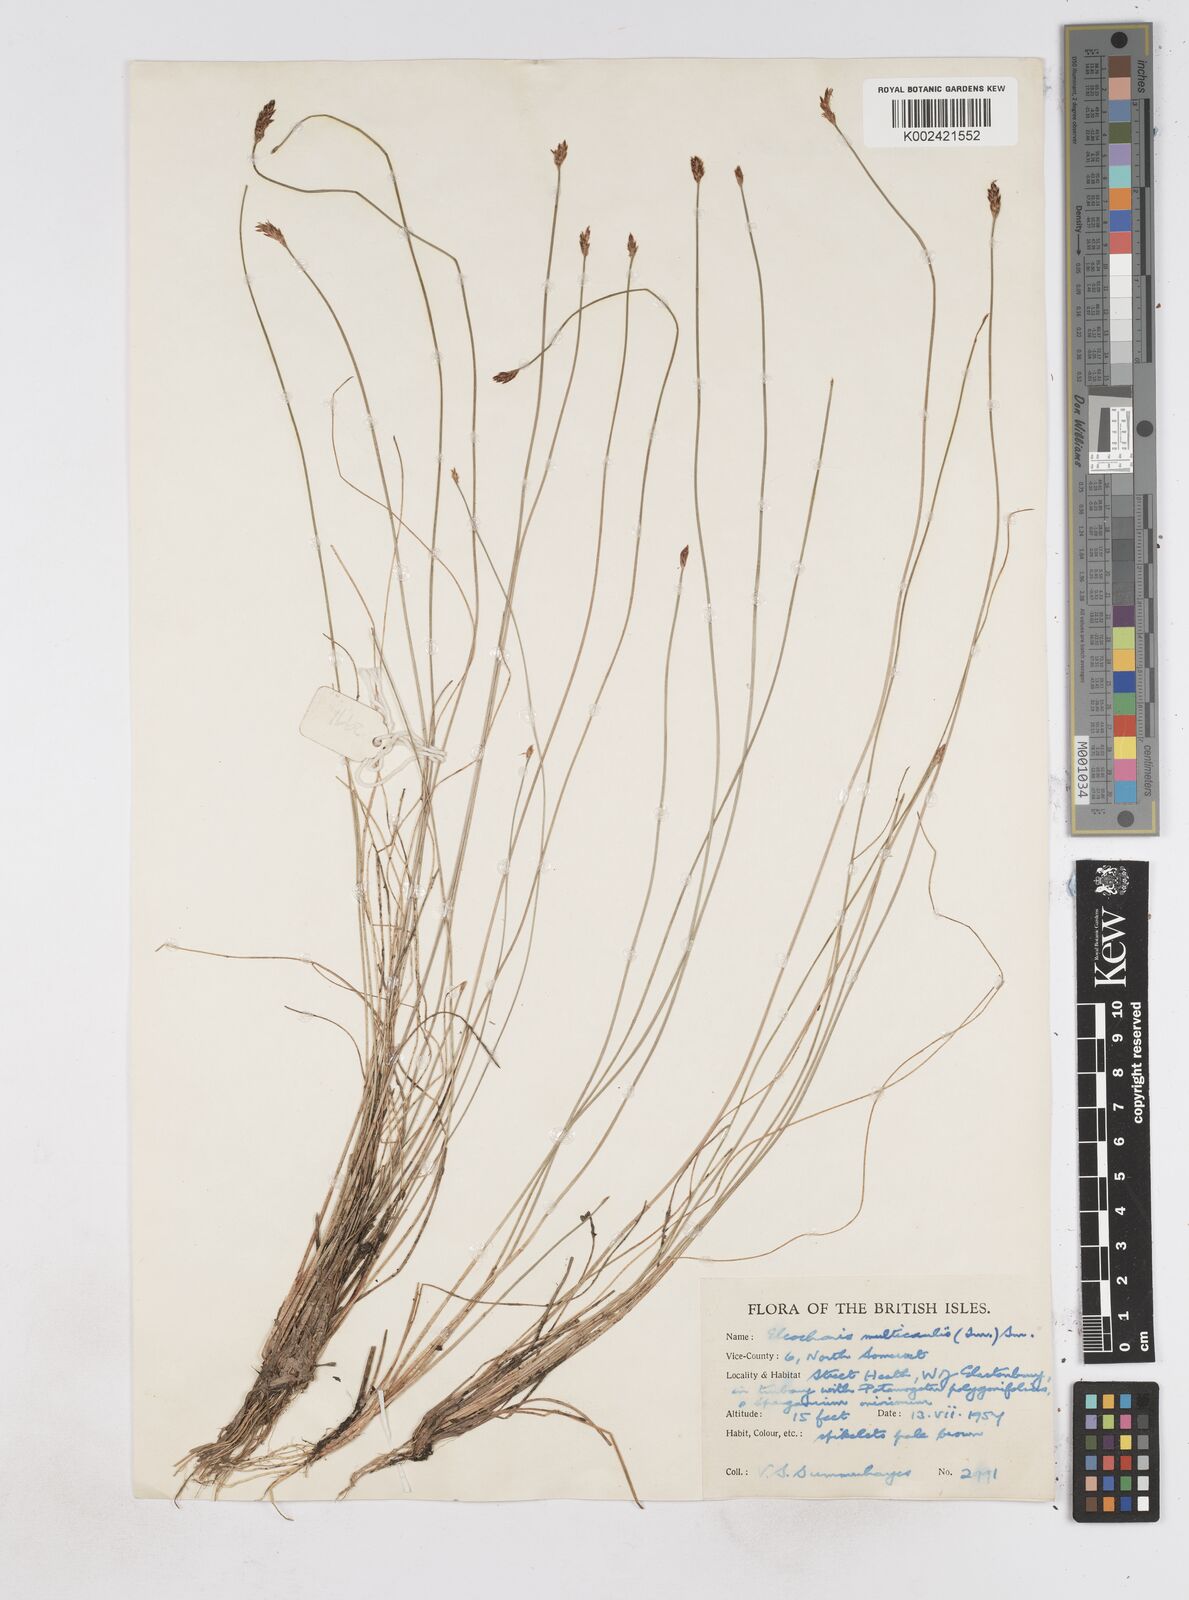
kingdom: Plantae
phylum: Tracheophyta
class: Liliopsida
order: Poales
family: Cyperaceae
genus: Eleocharis
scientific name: Eleocharis multicaulis
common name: Many-stalked spike-rush
